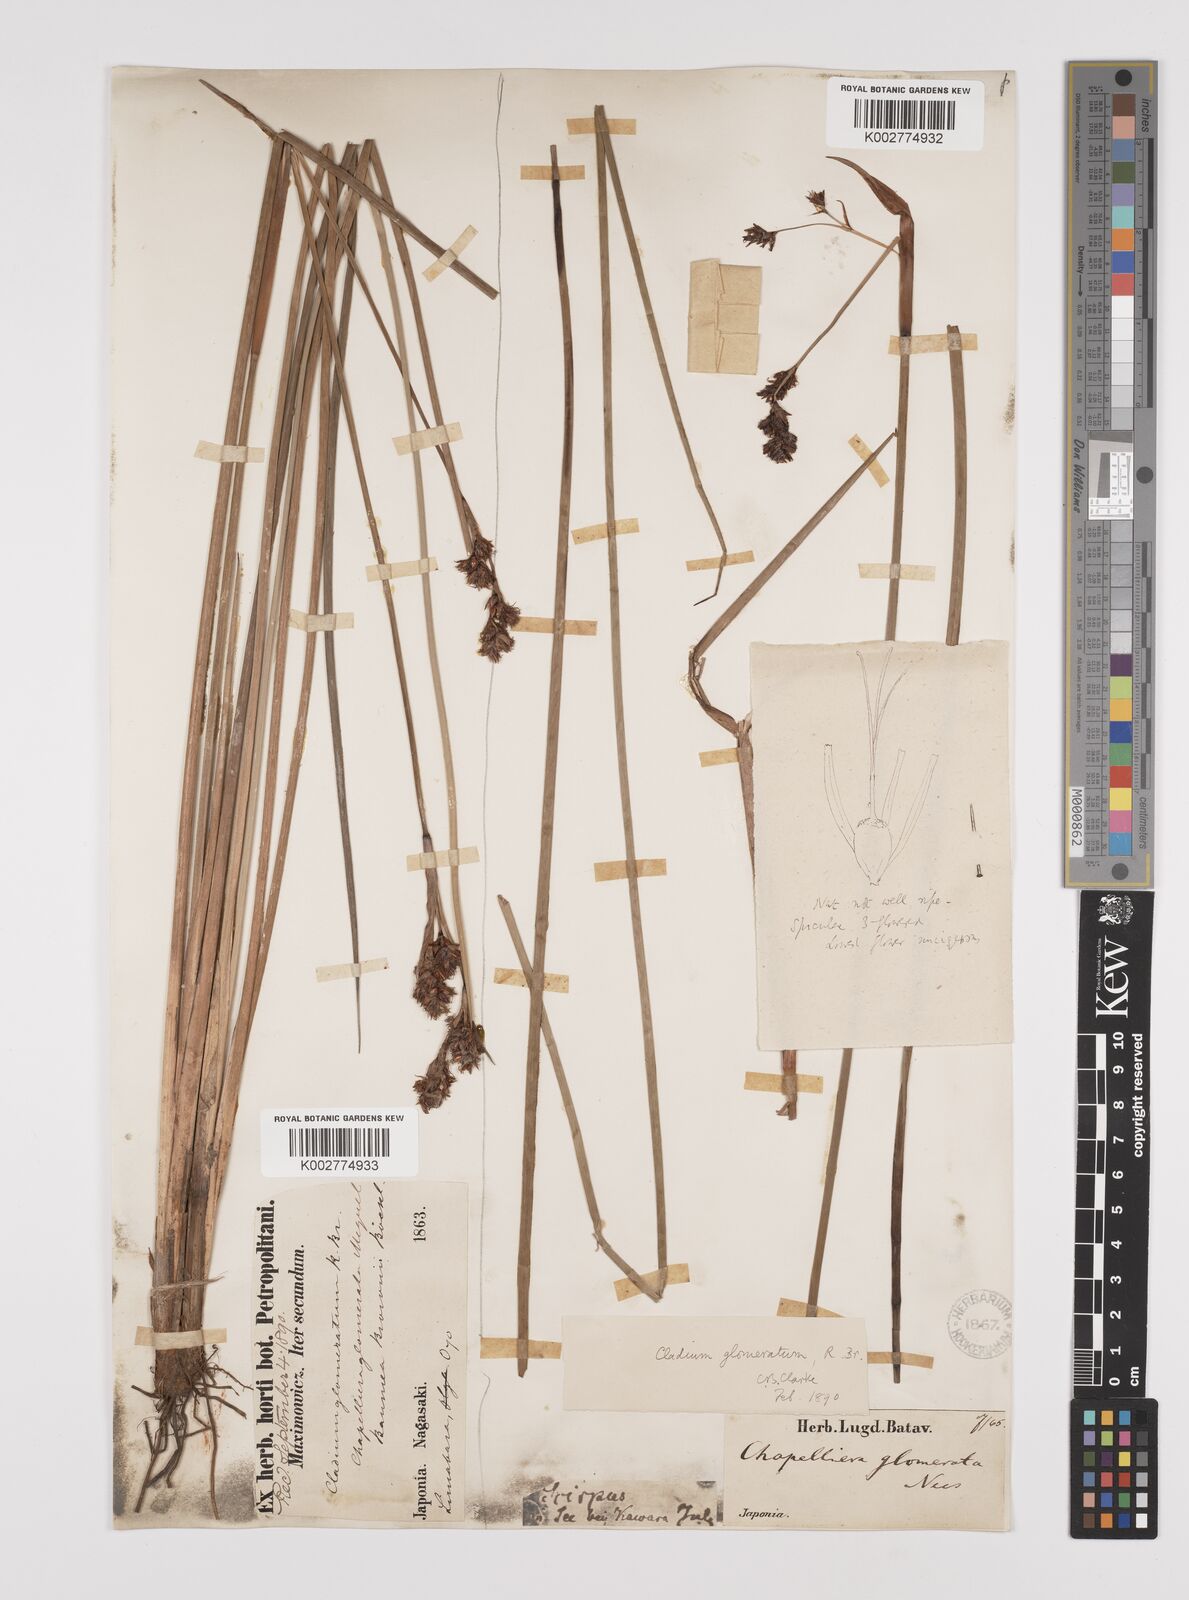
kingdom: Plantae
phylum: Tracheophyta
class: Liliopsida
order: Poales
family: Cyperaceae
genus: Machaerina
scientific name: Machaerina rubiginosa
